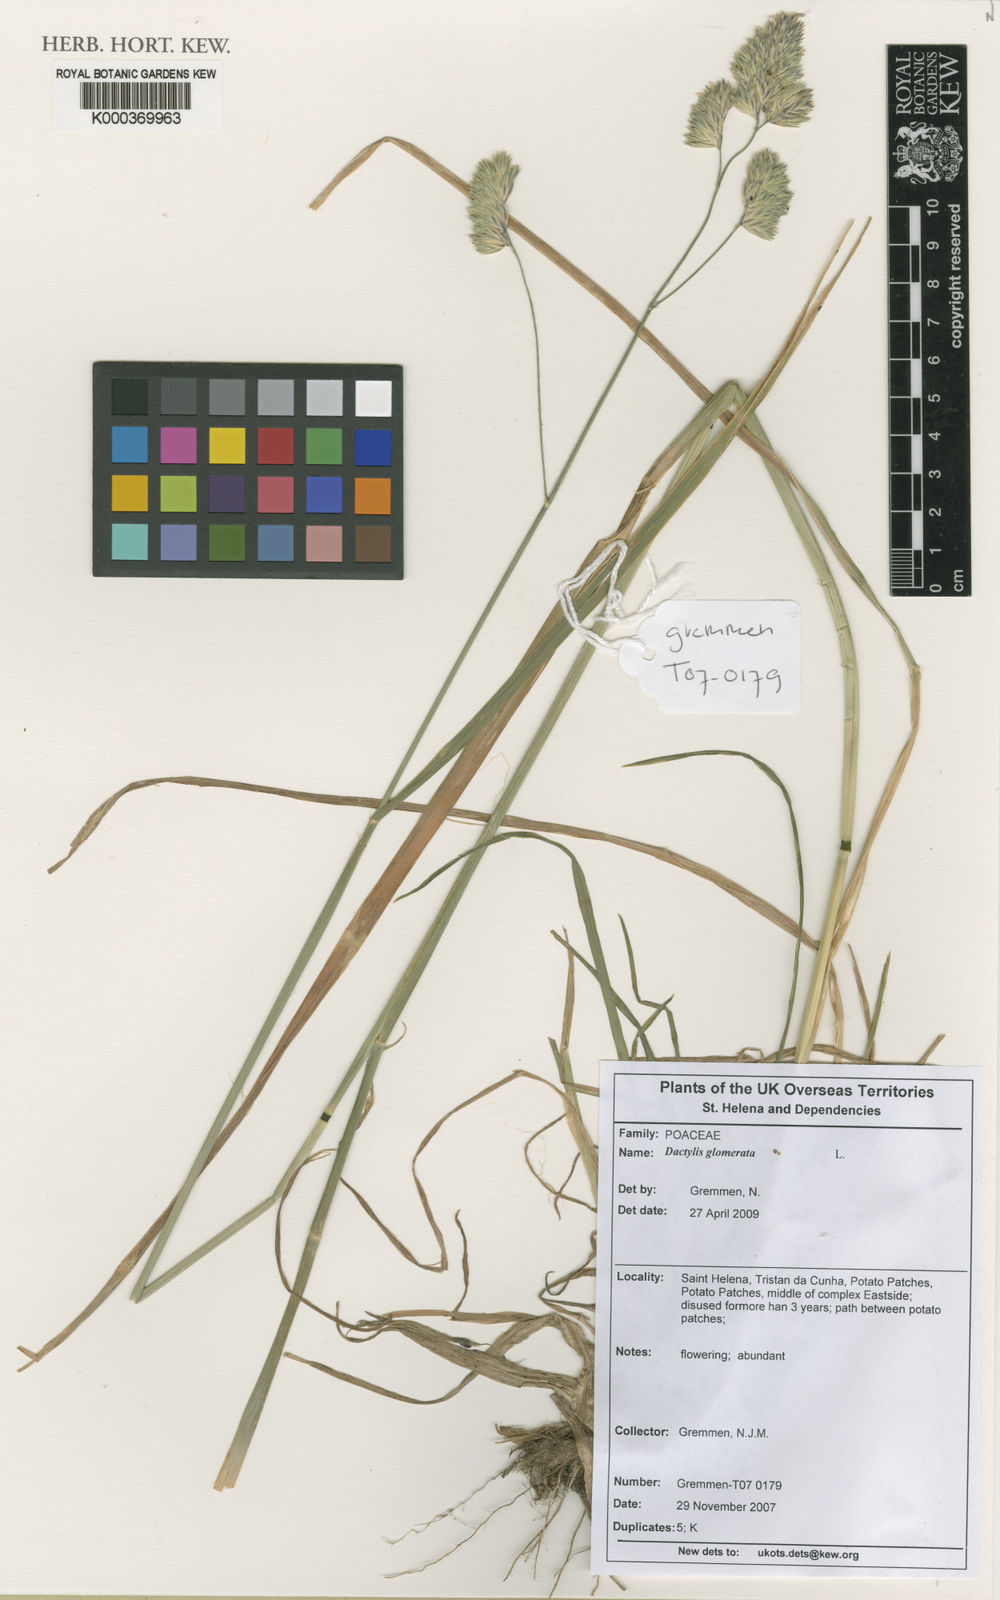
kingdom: Plantae
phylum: Tracheophyta
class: Liliopsida
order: Poales
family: Poaceae
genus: Dactylis
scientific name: Dactylis glomerata
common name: Orchardgrass
